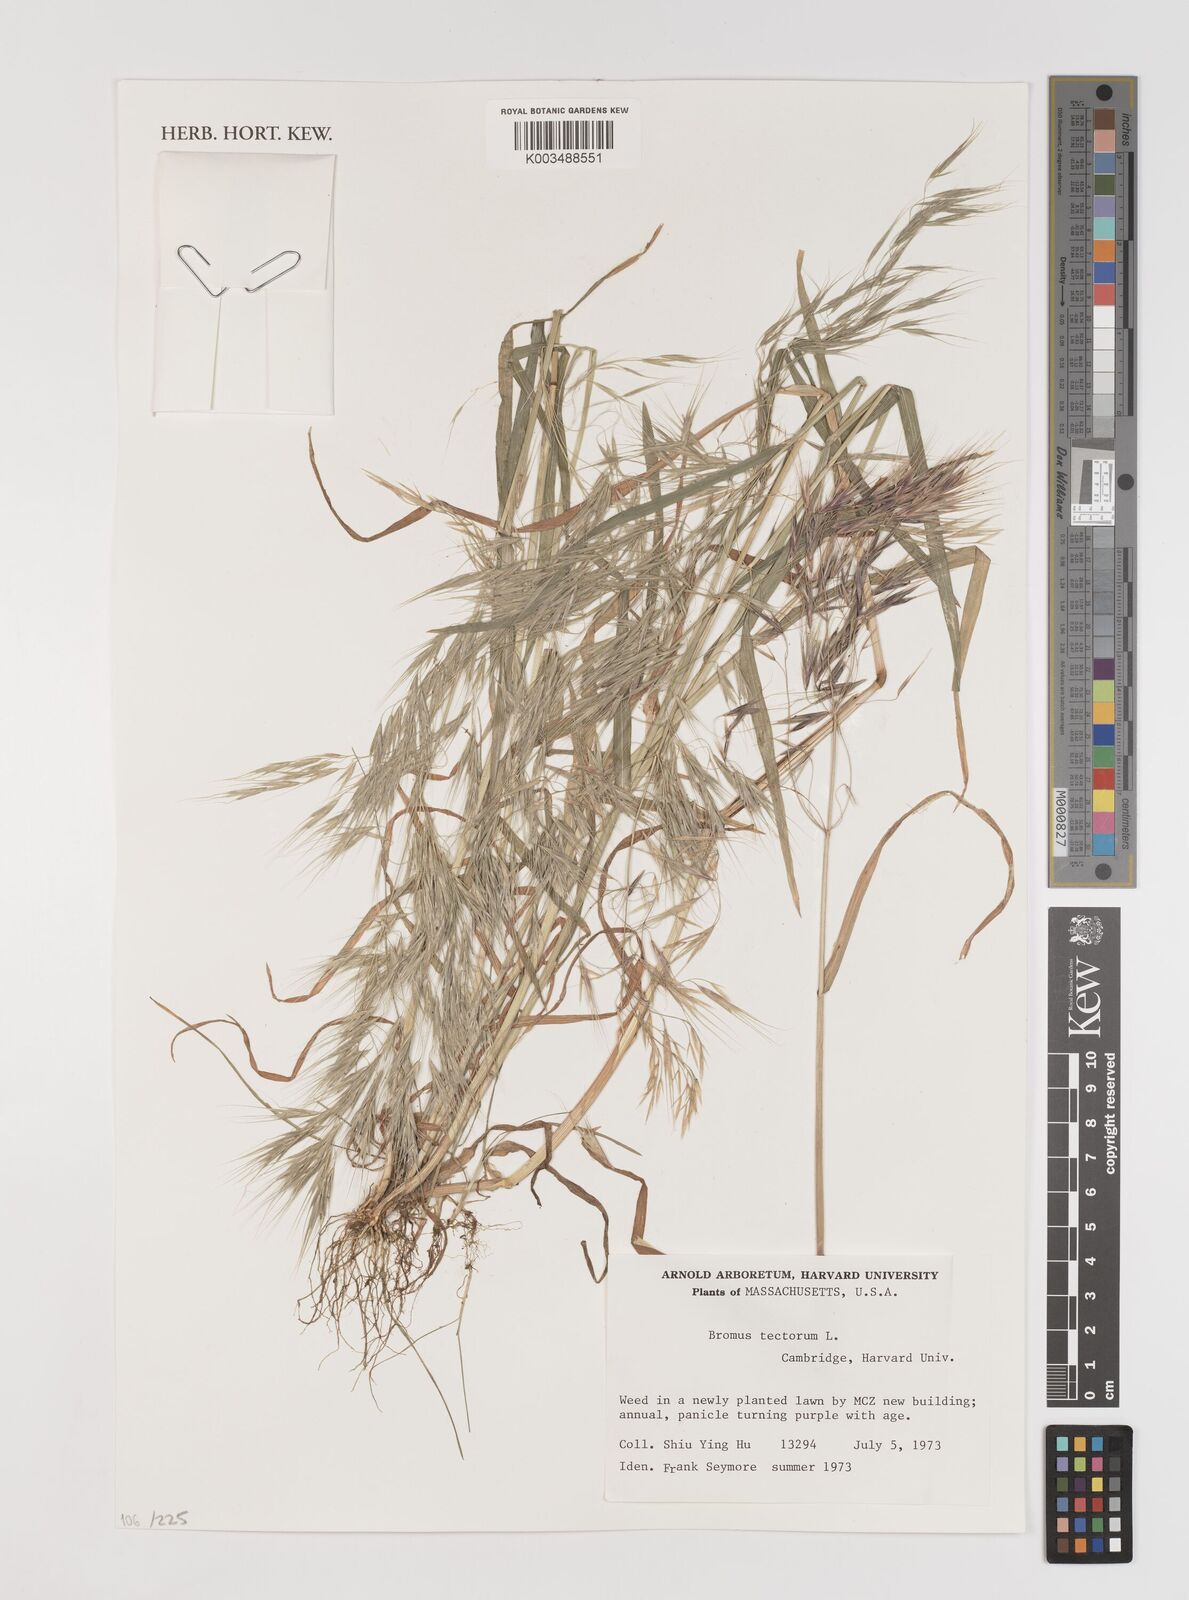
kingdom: Plantae
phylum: Tracheophyta
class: Liliopsida
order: Poales
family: Poaceae
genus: Bromus
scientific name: Bromus tectorum
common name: Cheatgrass
